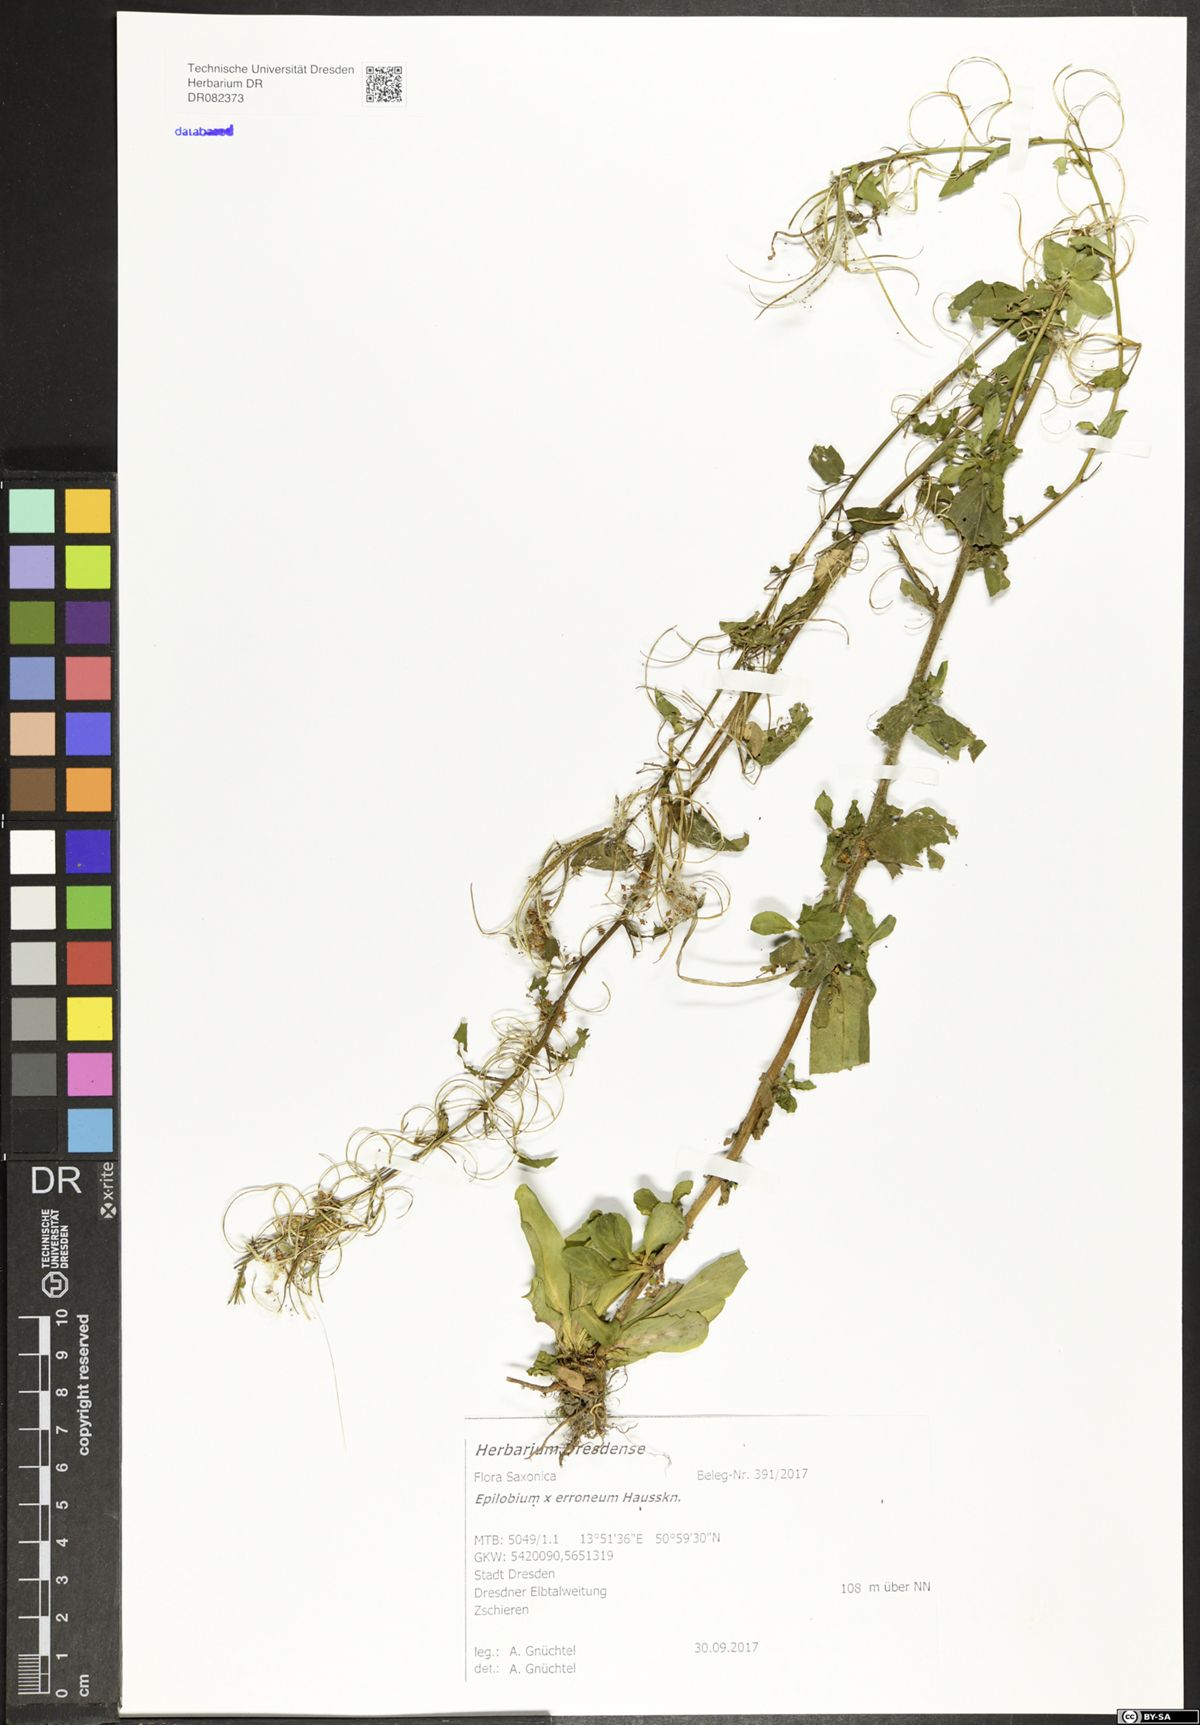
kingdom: Plantae
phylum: Tracheophyta
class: Magnoliopsida
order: Myrtales
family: Onagraceae
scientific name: Onagraceae
